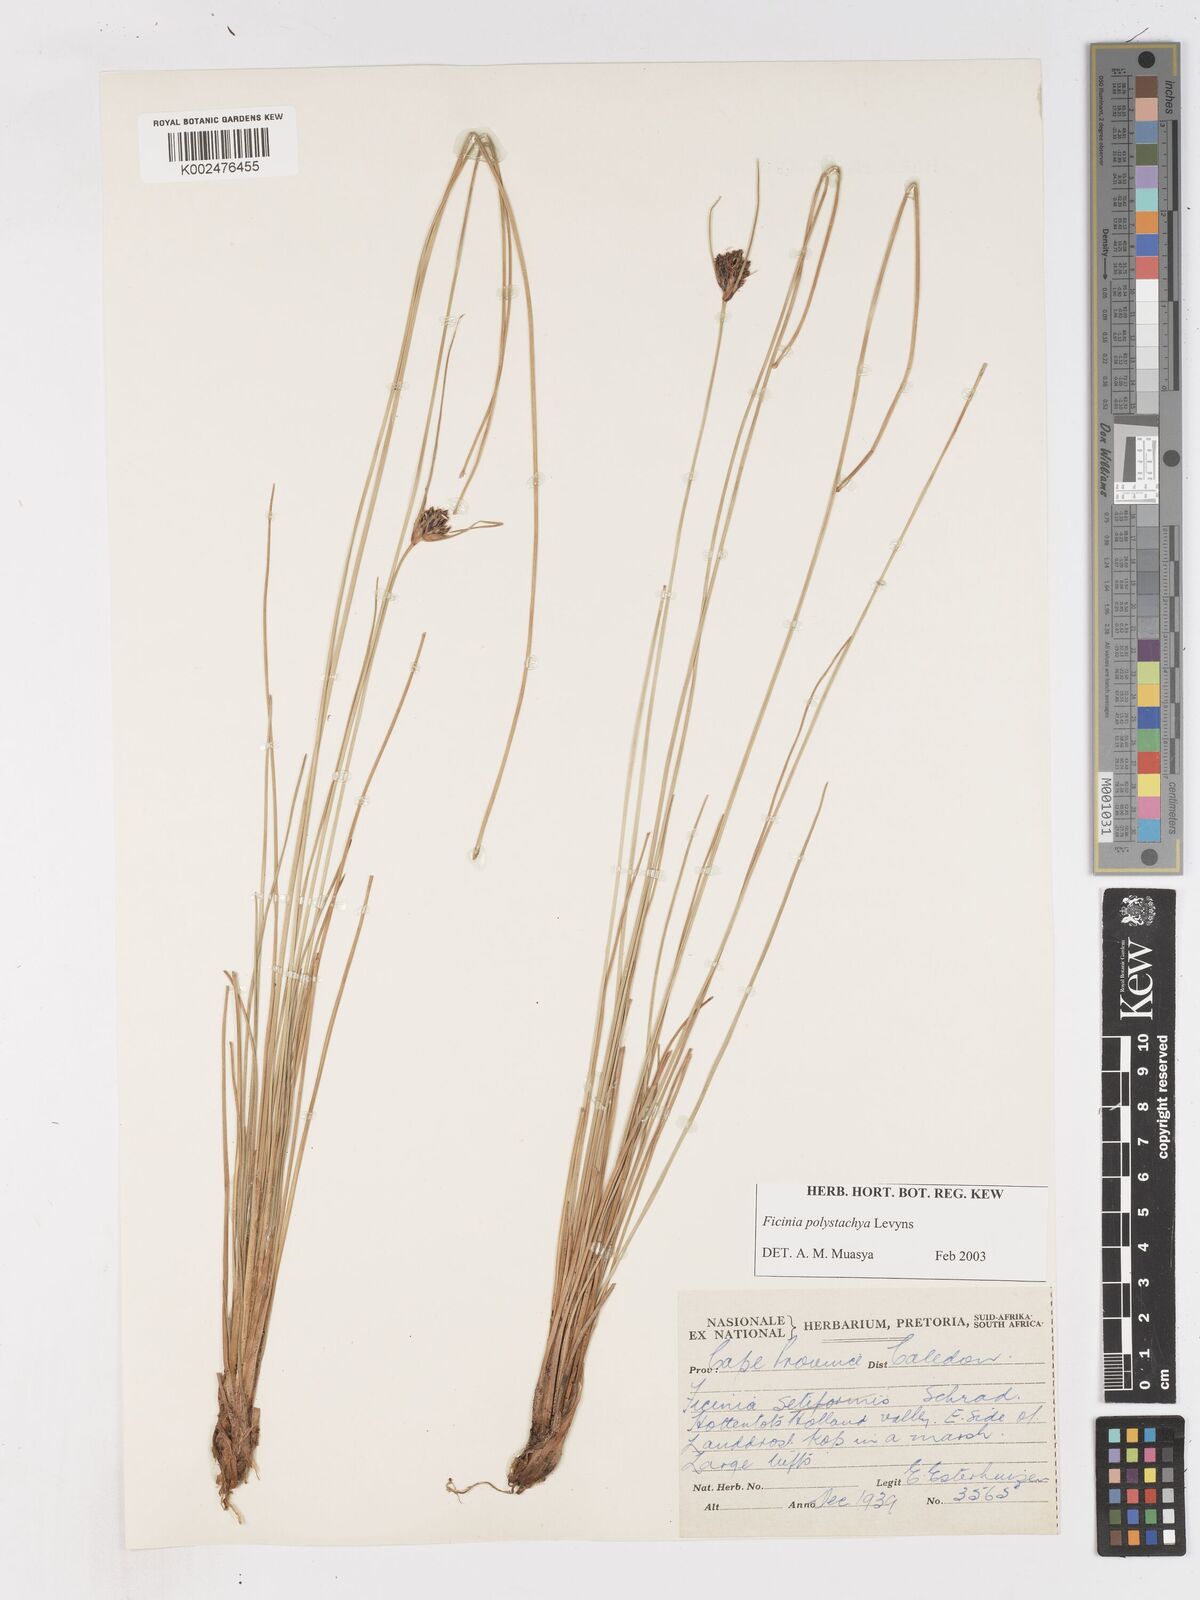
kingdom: Plantae
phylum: Tracheophyta
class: Liliopsida
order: Poales
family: Cyperaceae
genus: Ficinia
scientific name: Ficinia polystachya
